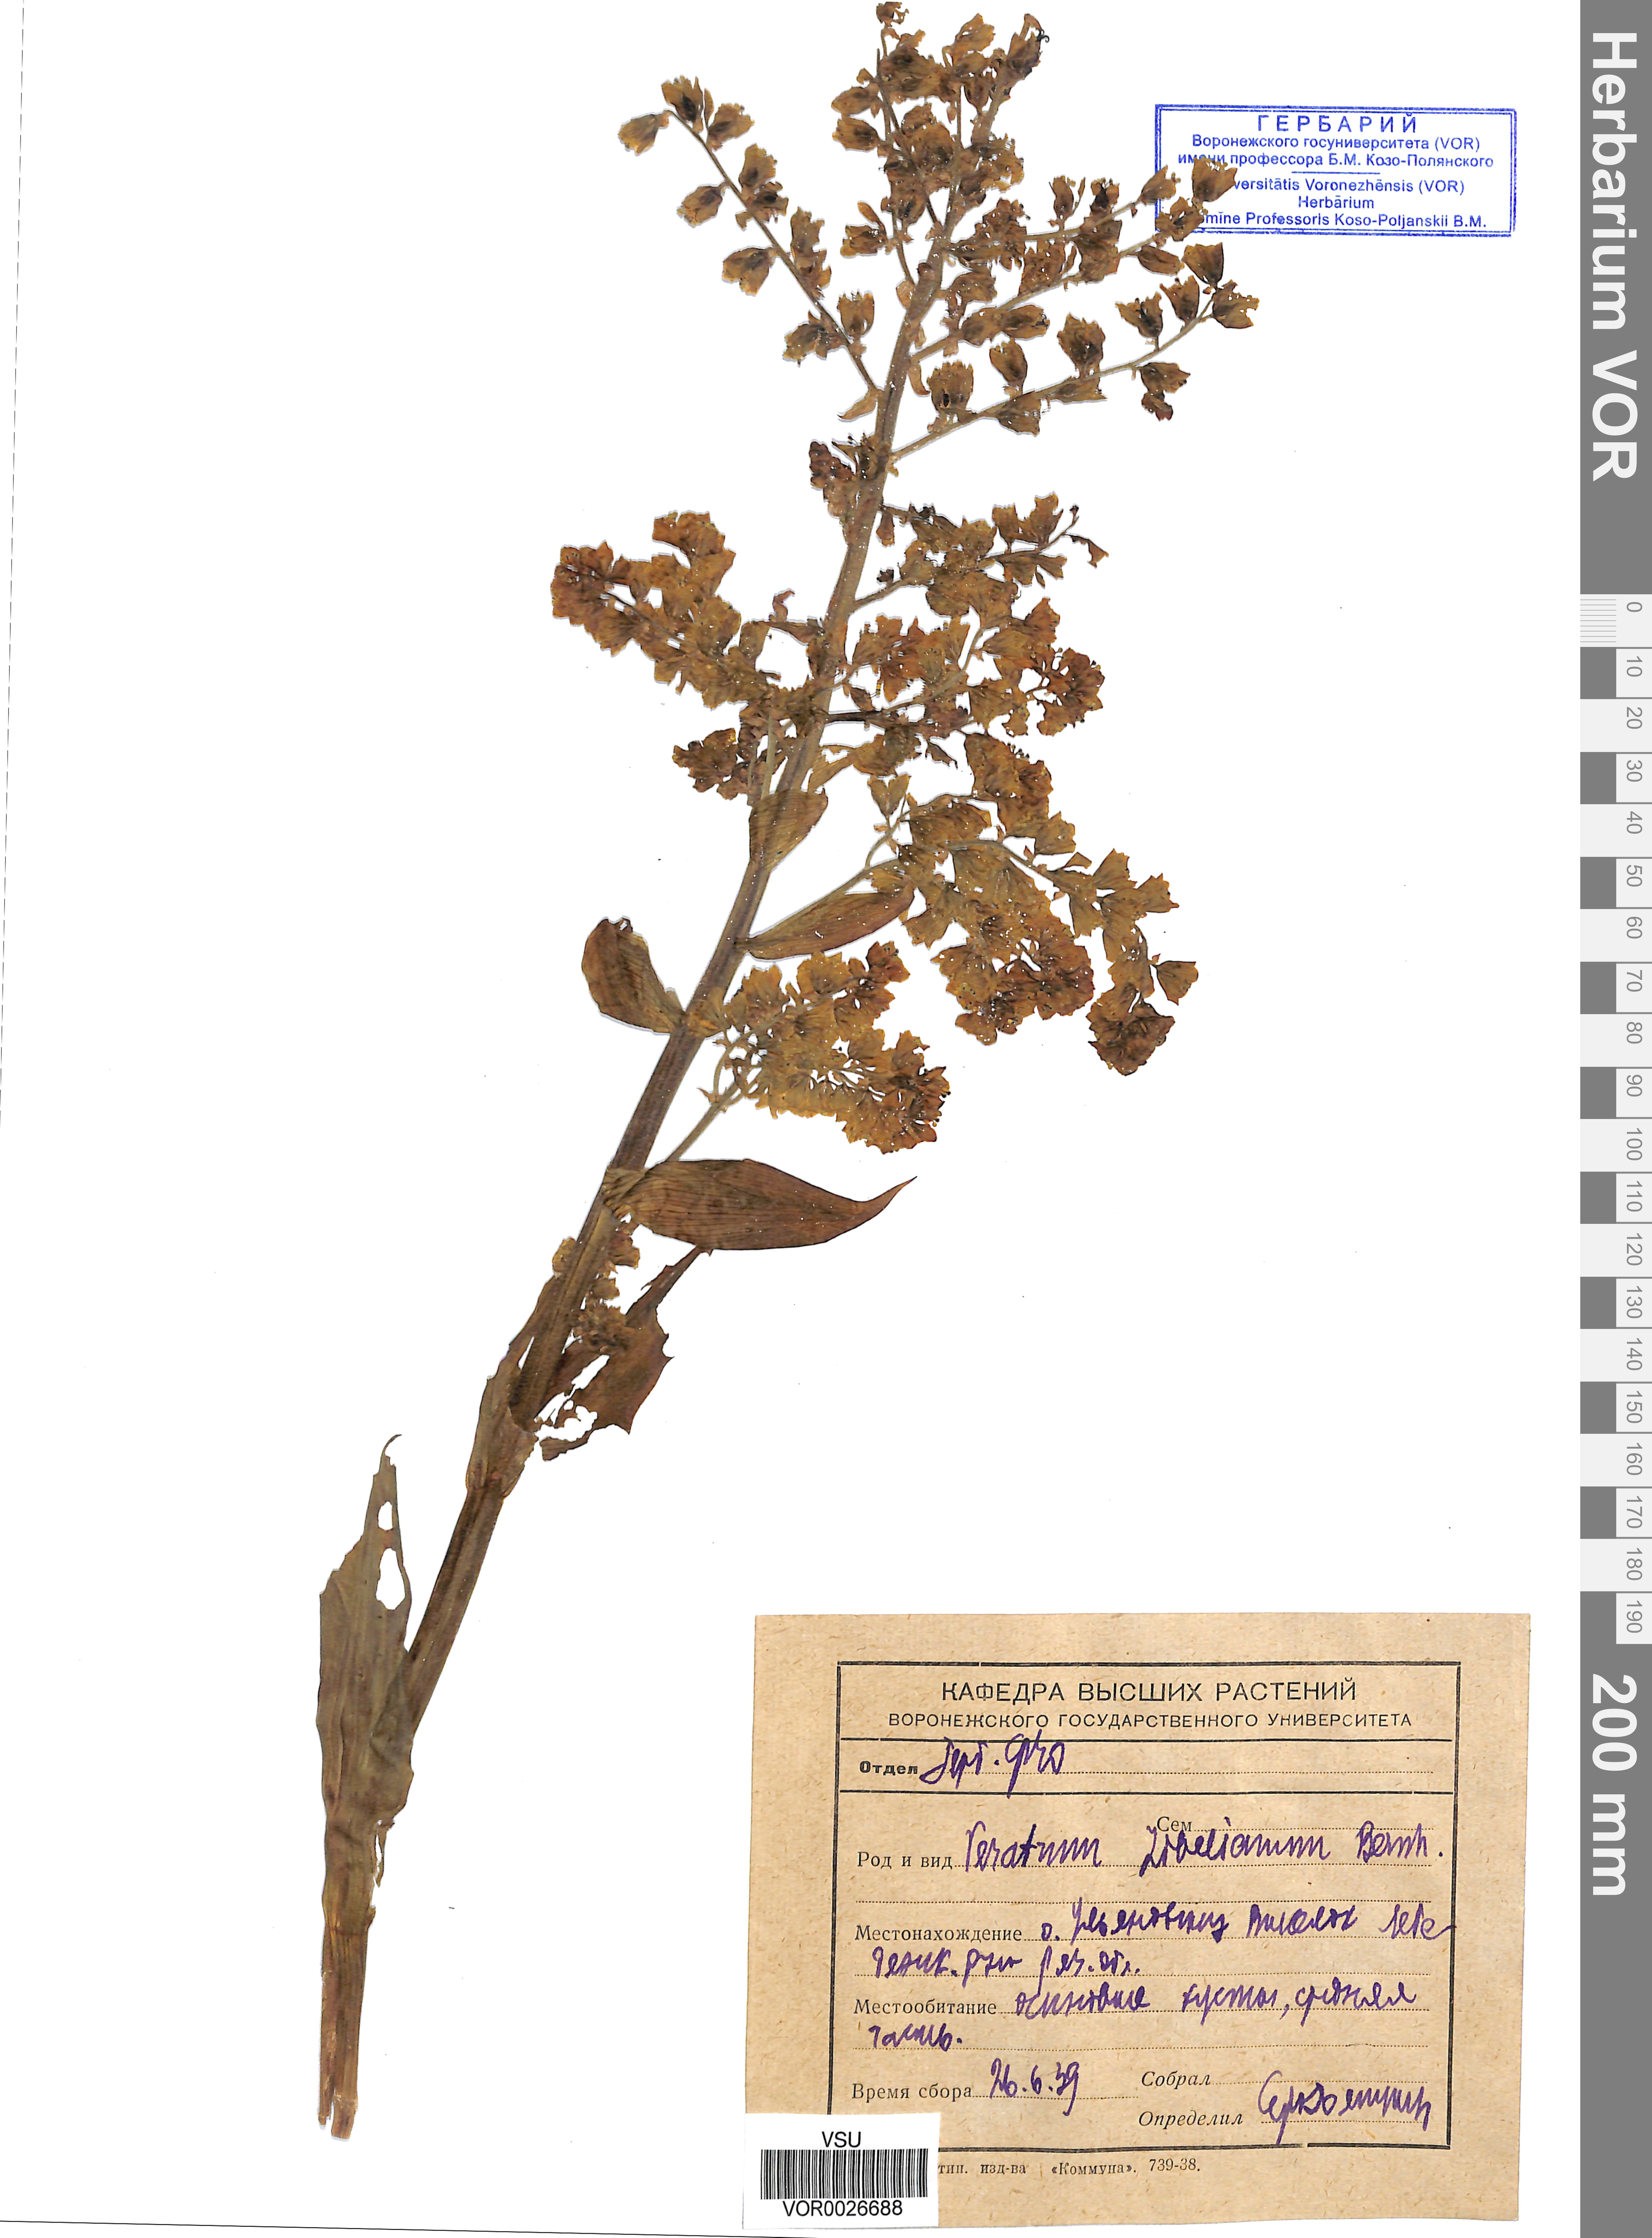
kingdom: Plantae
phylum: Tracheophyta
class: Liliopsida
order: Liliales
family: Melanthiaceae
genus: Veratrum
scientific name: Veratrum lobelianum
